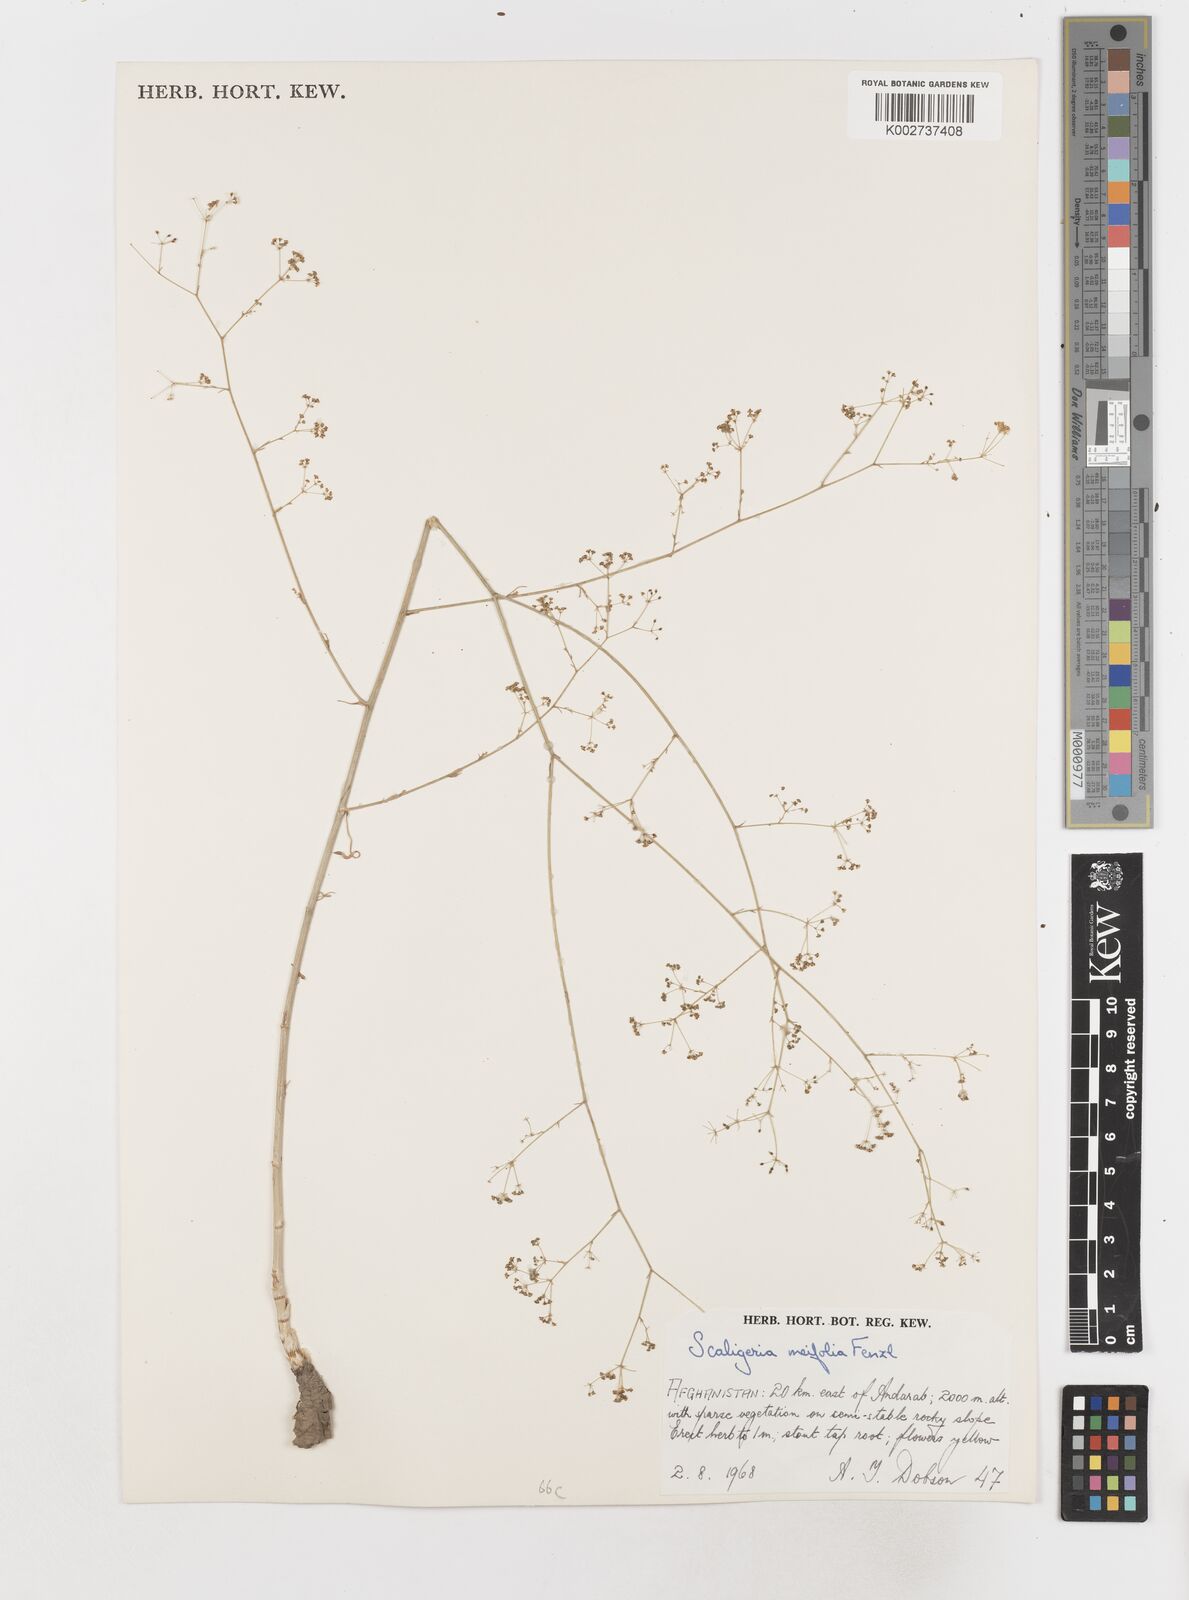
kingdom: Plantae
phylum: Tracheophyta
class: Magnoliopsida
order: Apiales
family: Apiaceae
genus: Elaeosticta
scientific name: Elaeosticta meifolia
